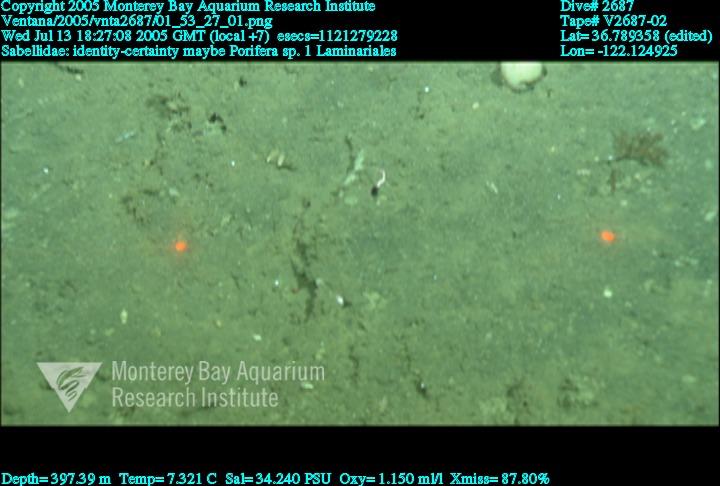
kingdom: Animalia
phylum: Porifera
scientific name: Porifera
